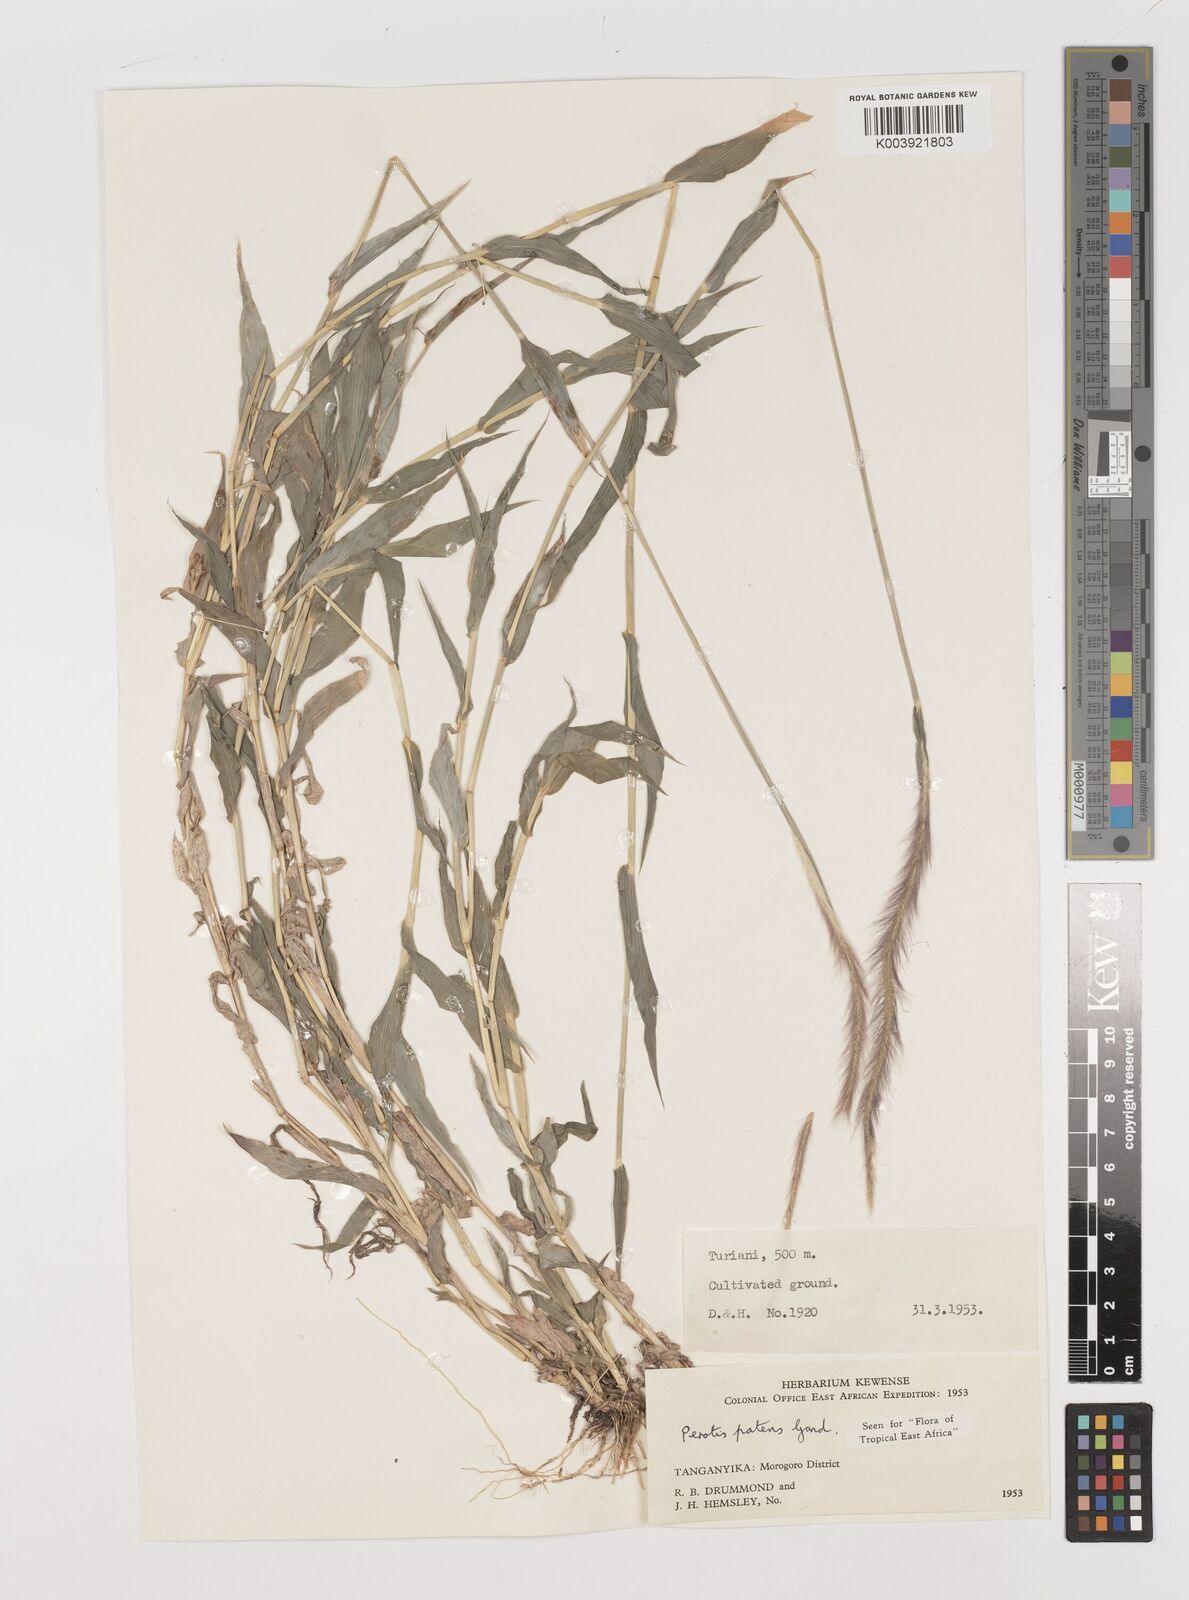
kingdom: Plantae
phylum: Tracheophyta
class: Liliopsida
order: Poales
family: Poaceae
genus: Perotis
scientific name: Perotis patens
